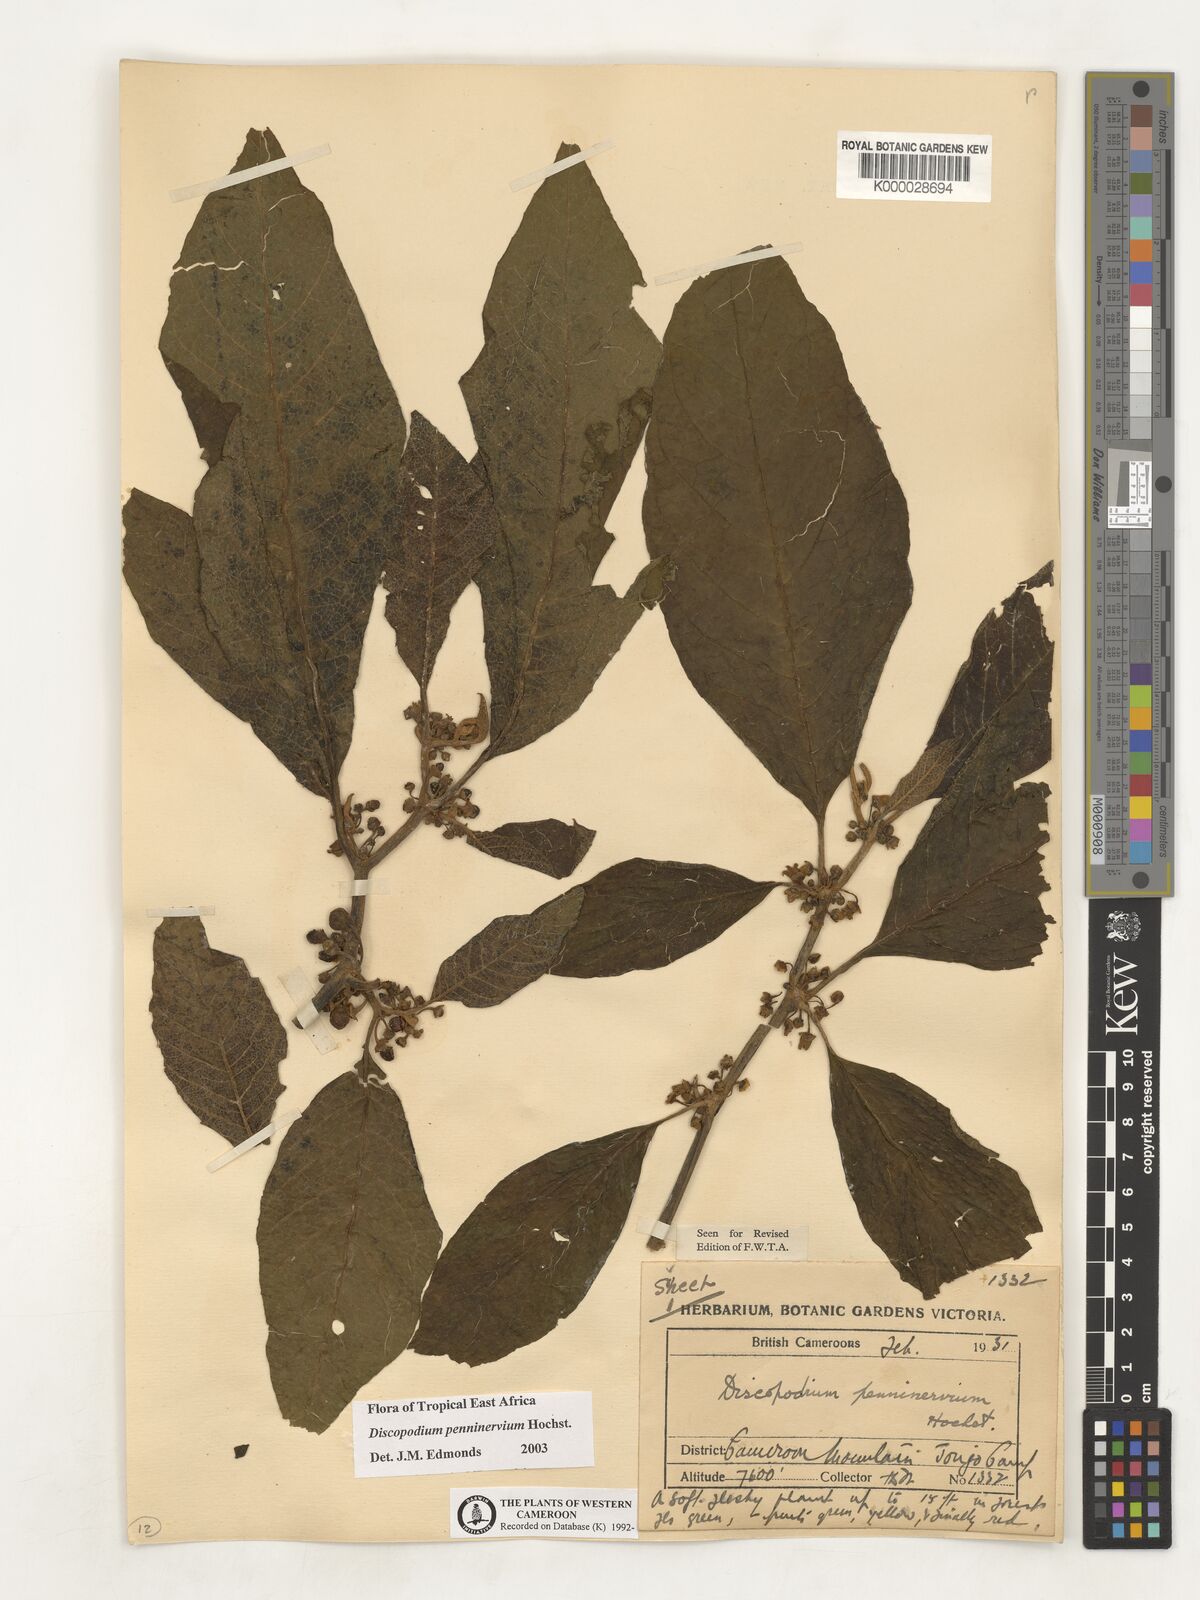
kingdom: Plantae
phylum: Tracheophyta
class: Magnoliopsida
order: Solanales
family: Solanaceae
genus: Discopodium
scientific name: Discopodium penninervium
